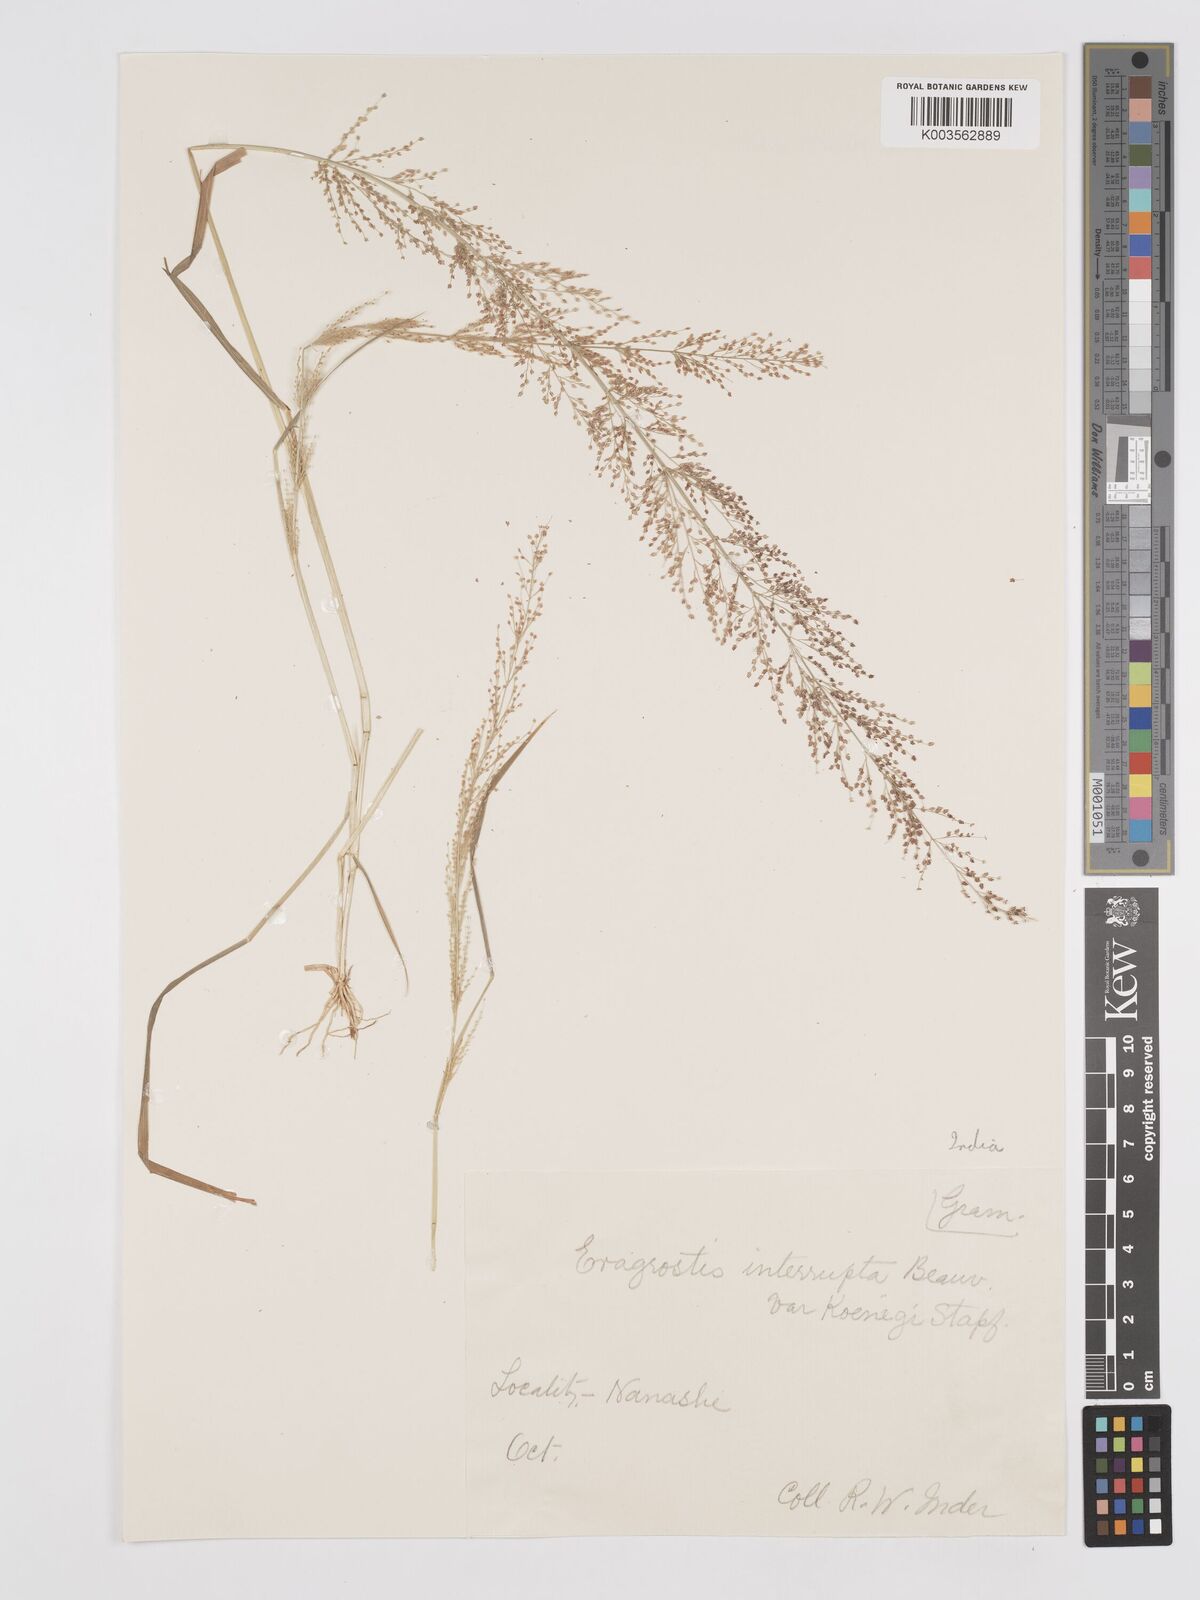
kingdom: Plantae
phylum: Tracheophyta
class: Liliopsida
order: Poales
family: Poaceae
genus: Eragrostis
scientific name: Eragrostis japonica
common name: Pond lovegrass
